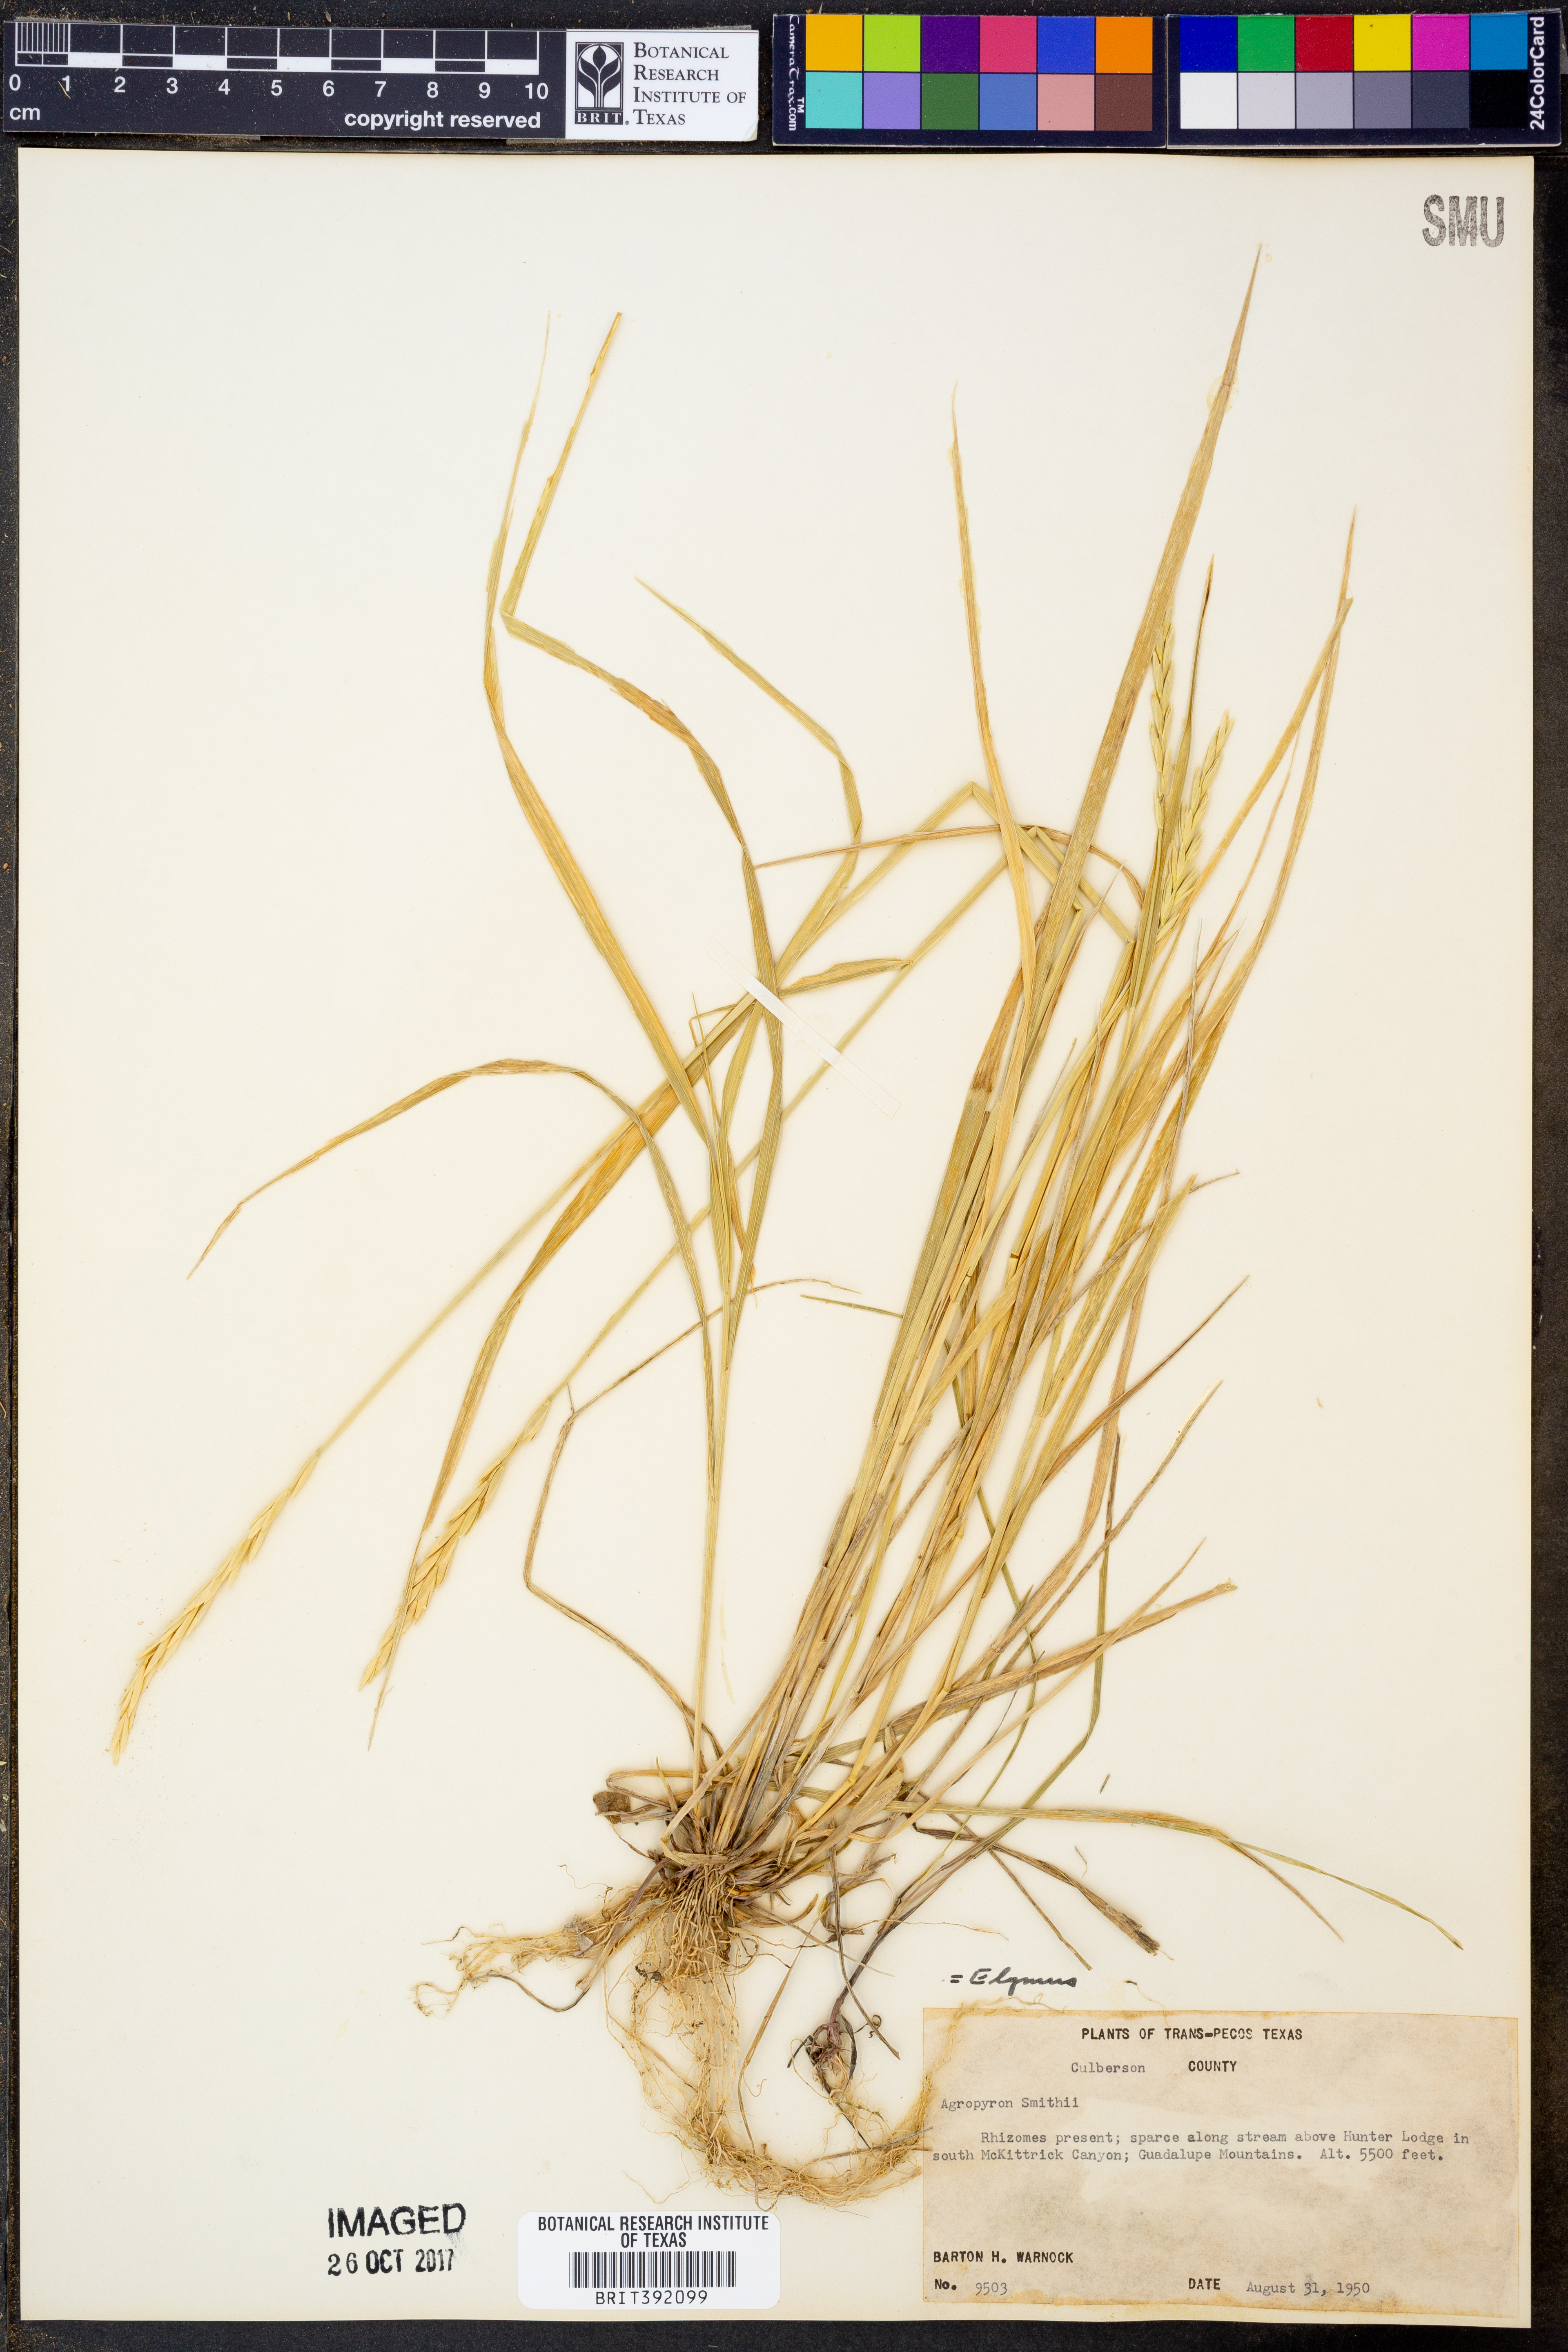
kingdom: Plantae
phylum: Tracheophyta
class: Liliopsida
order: Poales
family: Poaceae
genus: Elymus
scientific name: Elymus smithii
